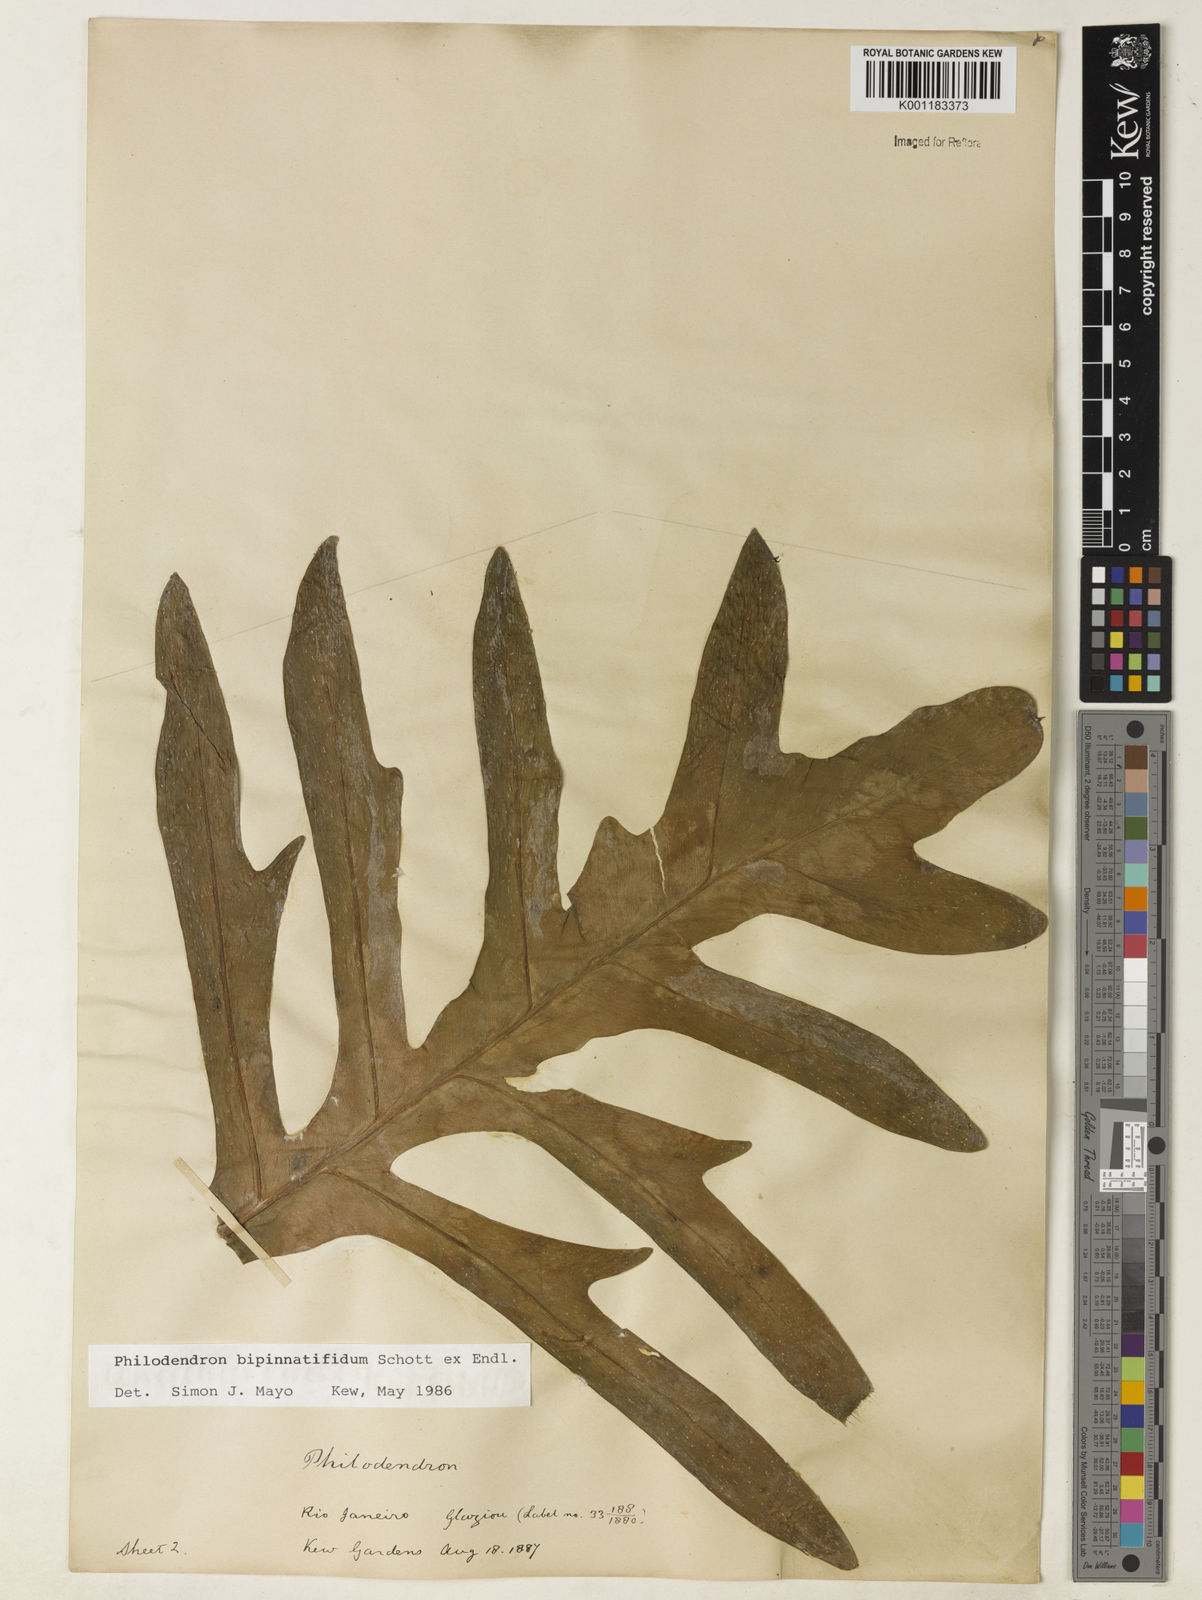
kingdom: Plantae
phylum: Tracheophyta
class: Liliopsida
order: Alismatales
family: Araceae
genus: Philodendron
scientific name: Philodendron
